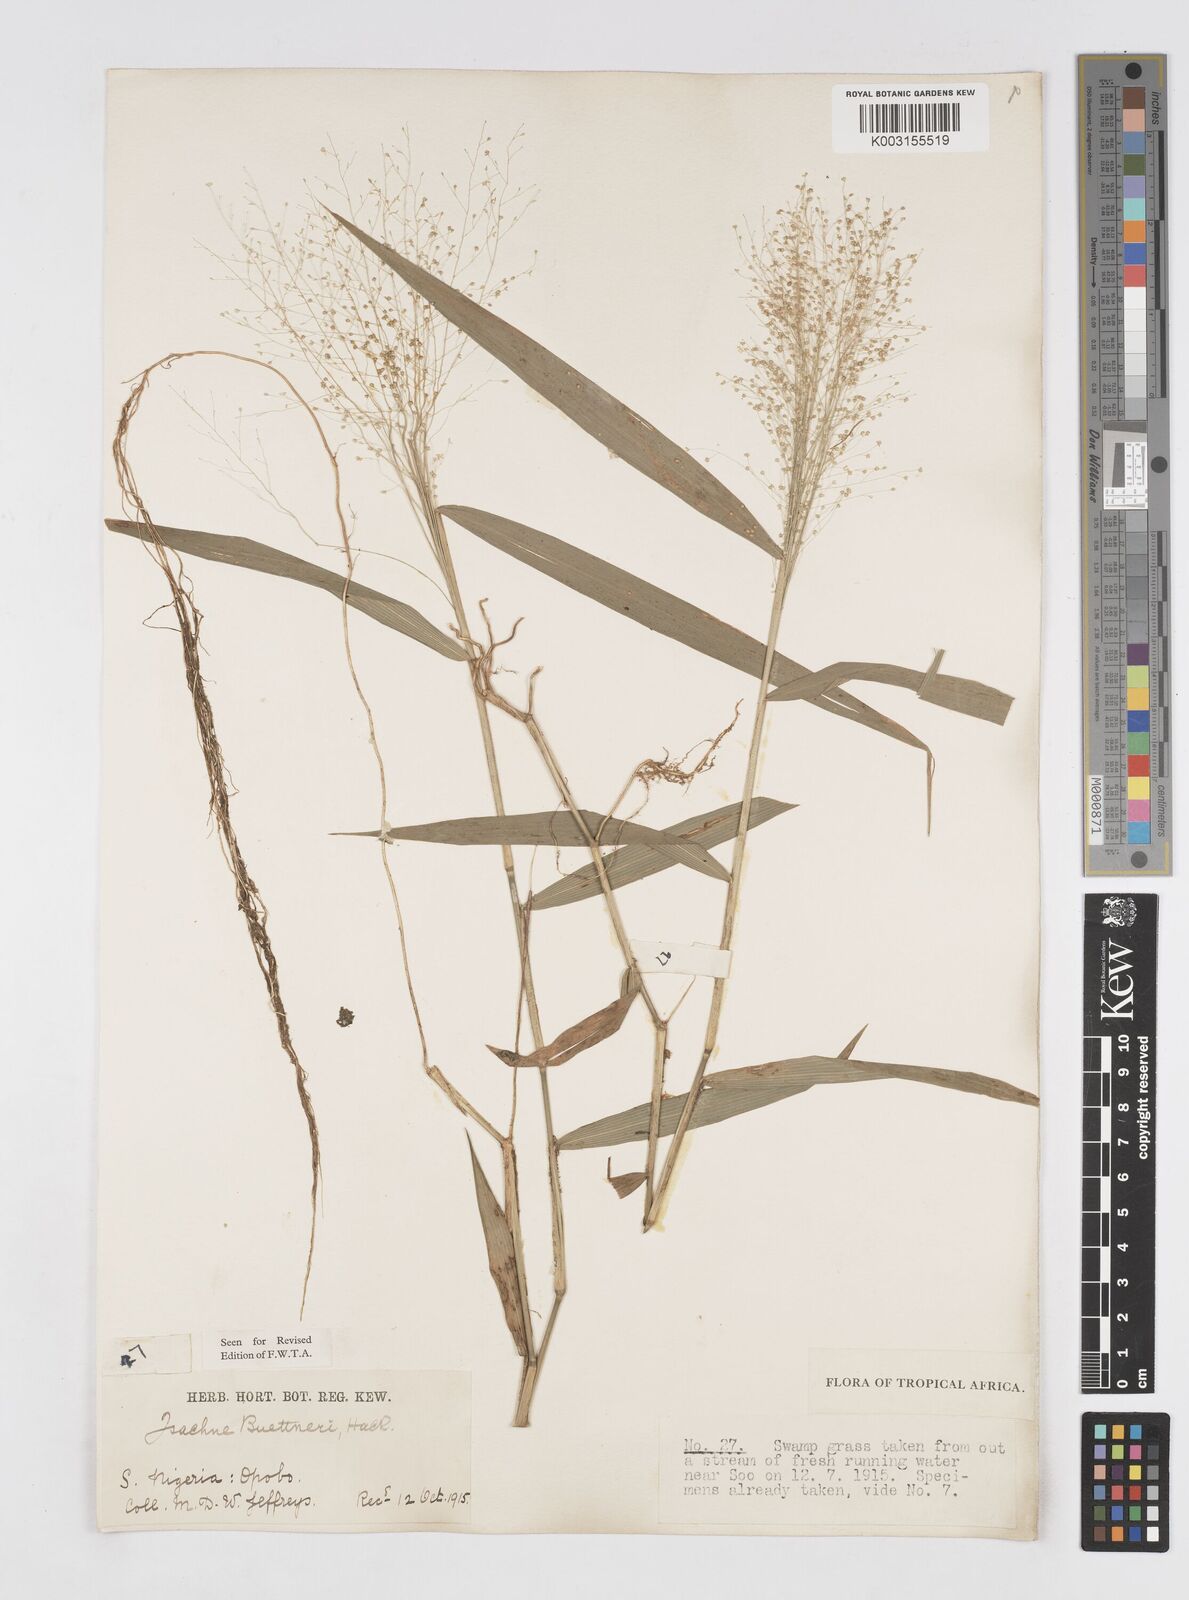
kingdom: Plantae
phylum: Tracheophyta
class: Liliopsida
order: Poales
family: Poaceae
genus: Isachne
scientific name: Isachne albens
